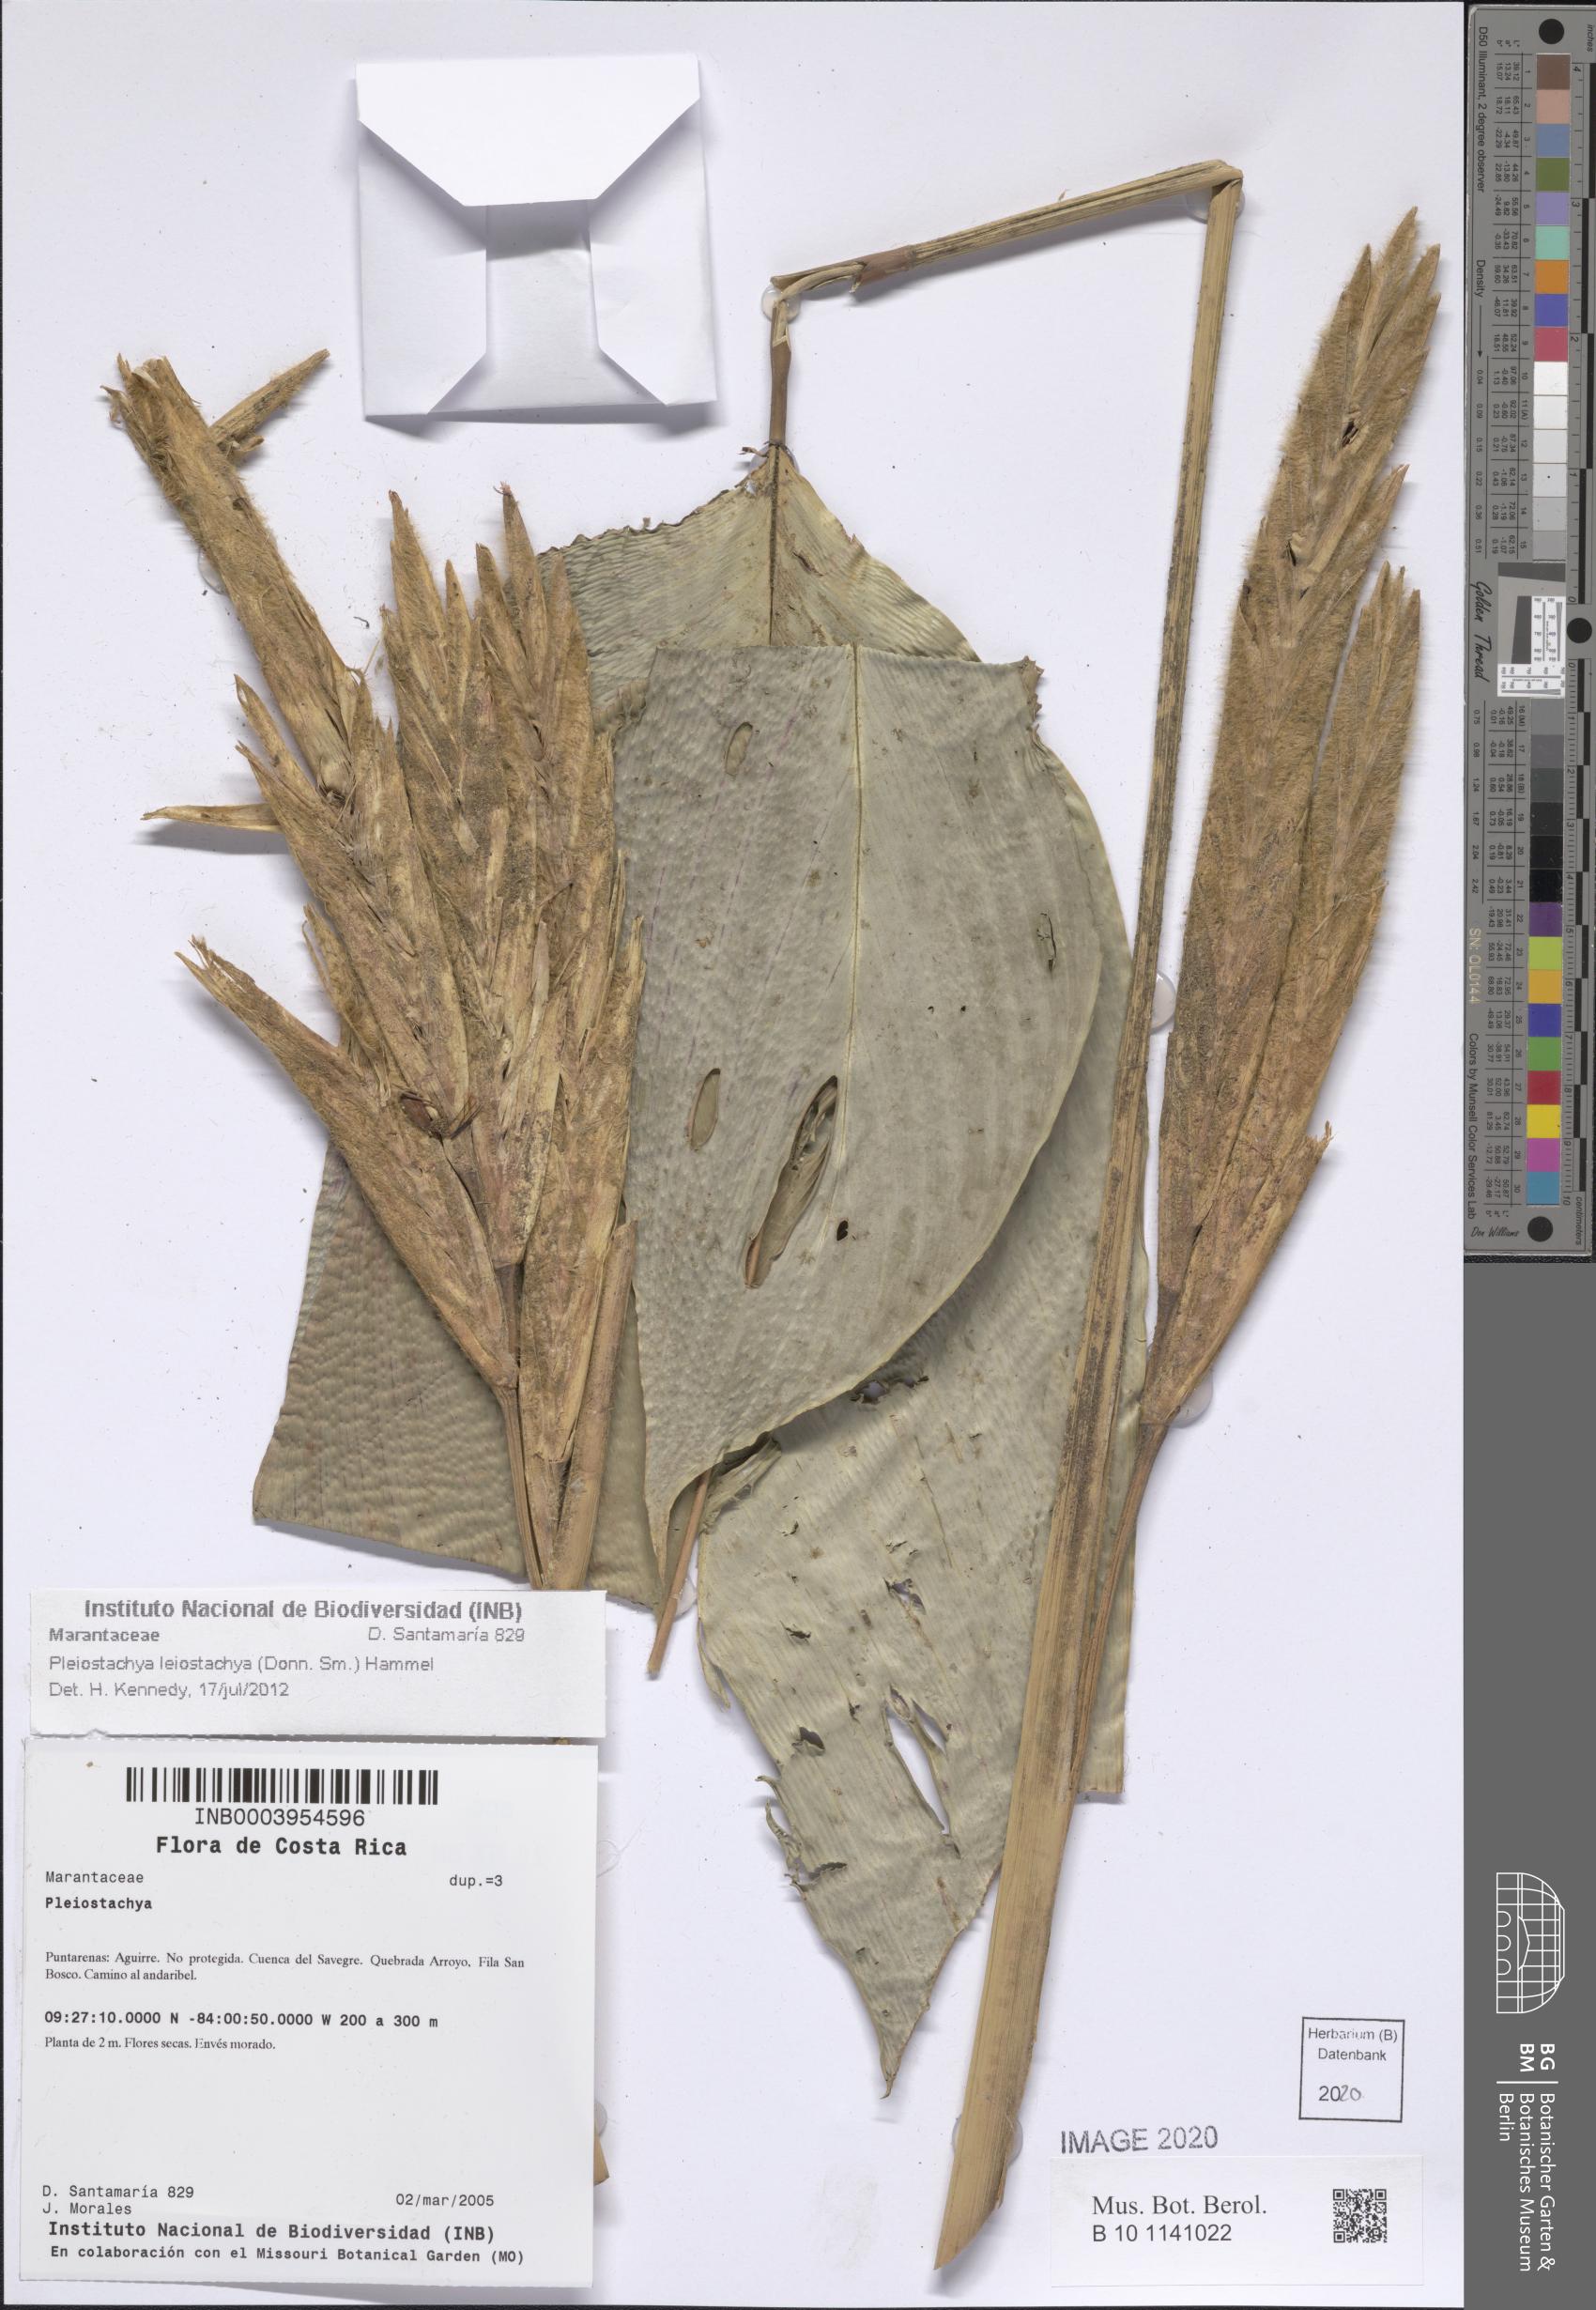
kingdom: Plantae
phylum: Tracheophyta
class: Liliopsida
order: Zingiberales
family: Marantaceae
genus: Pleiostachya
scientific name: Pleiostachya leiostachya
